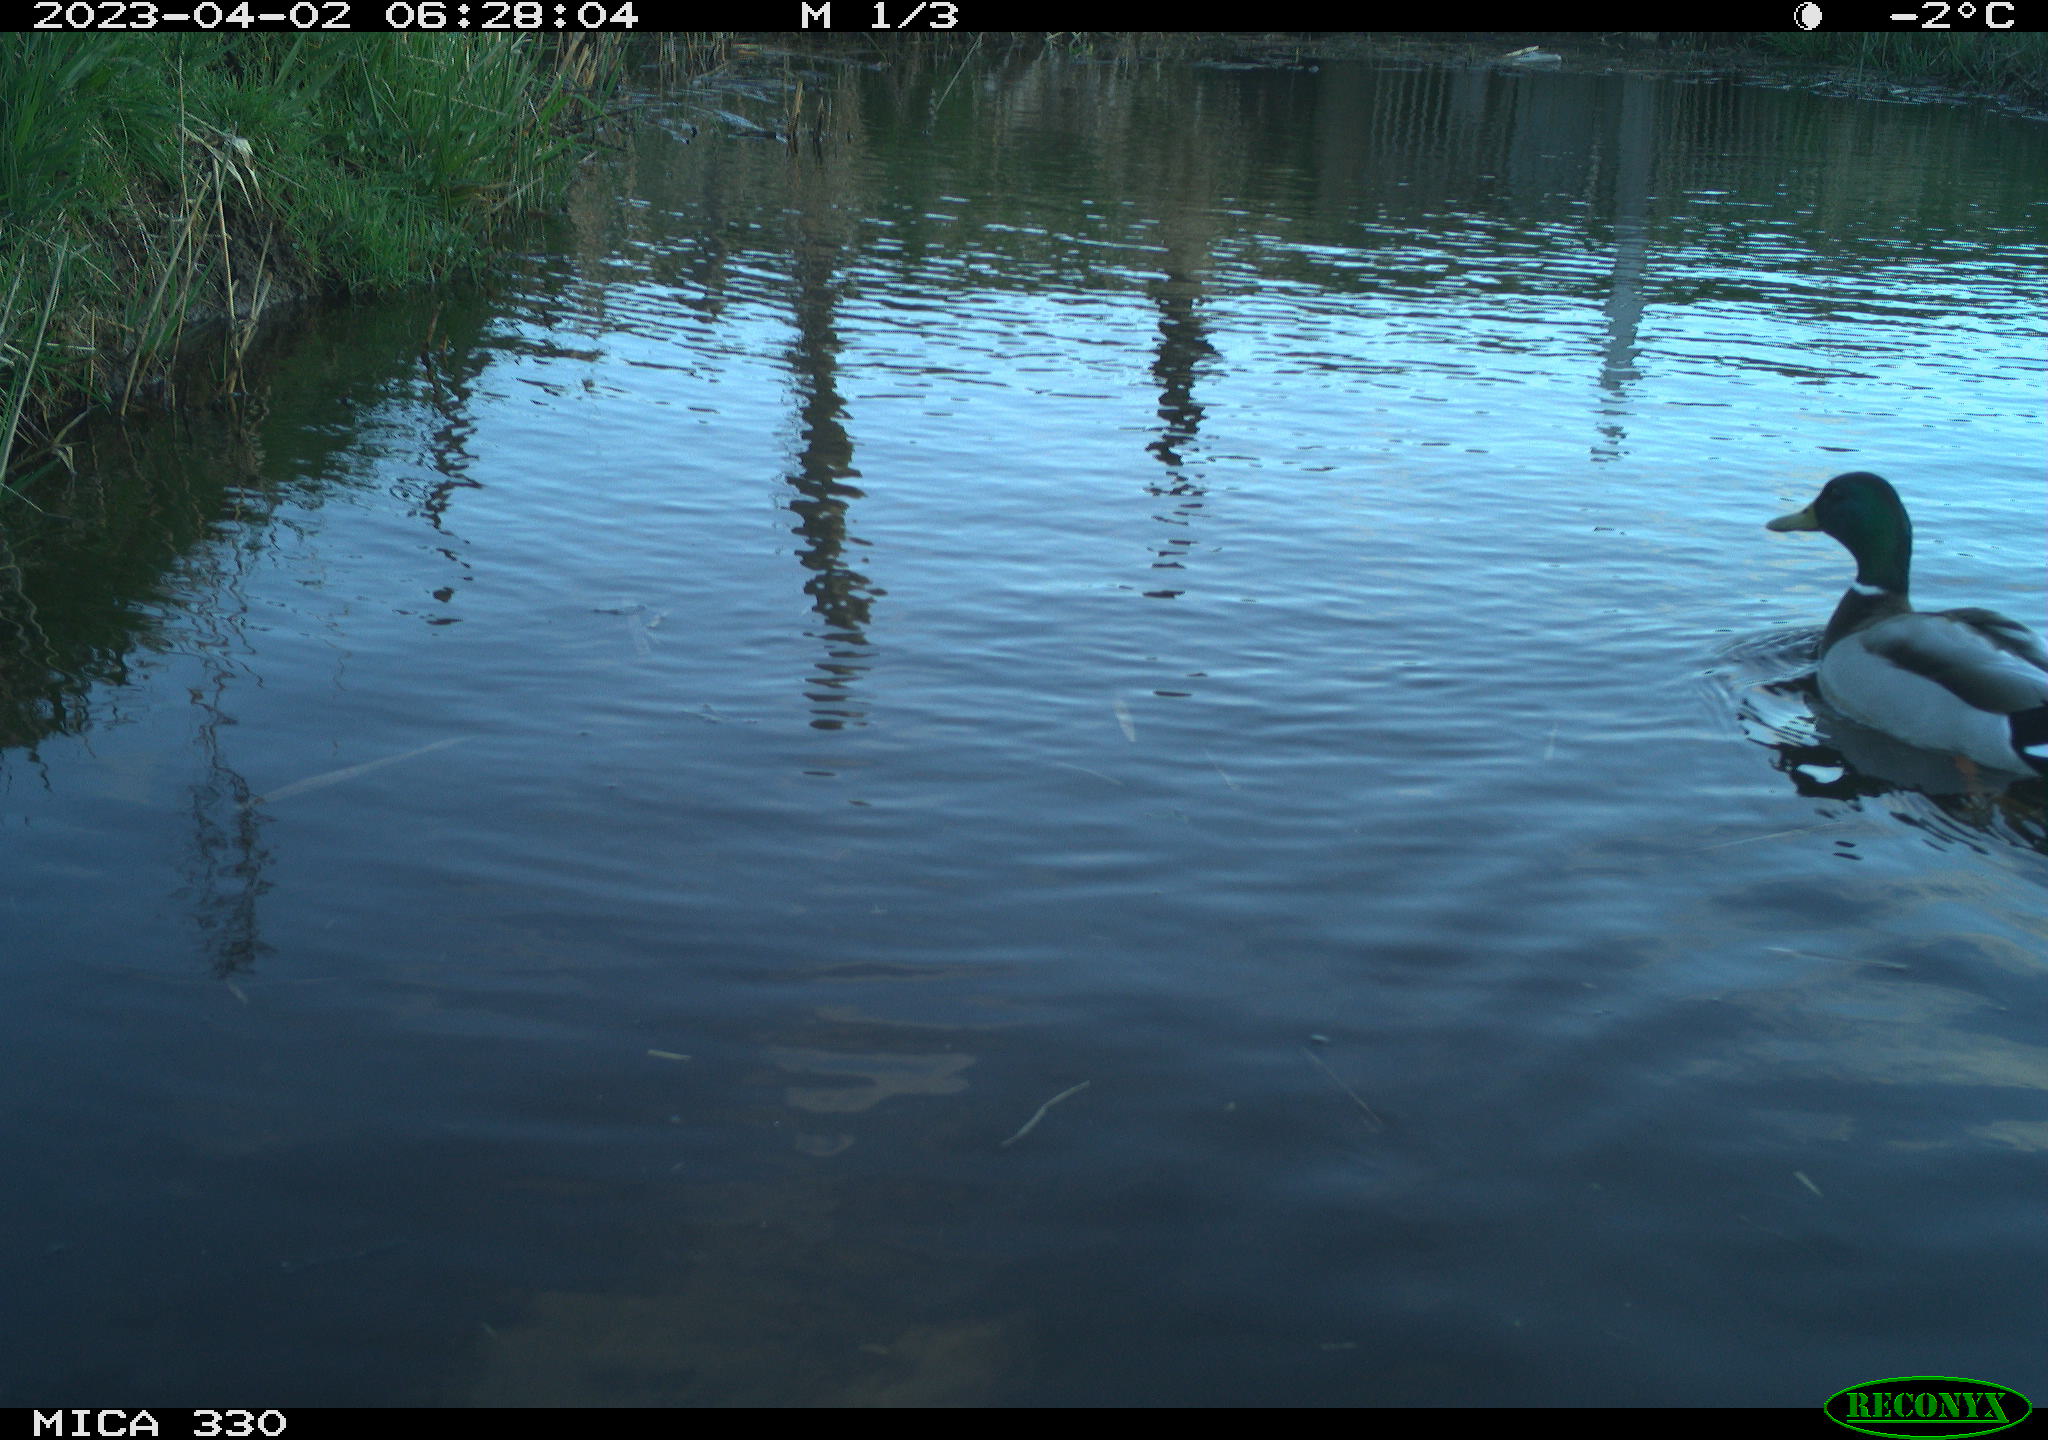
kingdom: Animalia
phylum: Chordata
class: Aves
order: Anseriformes
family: Anatidae
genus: Anas
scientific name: Anas
